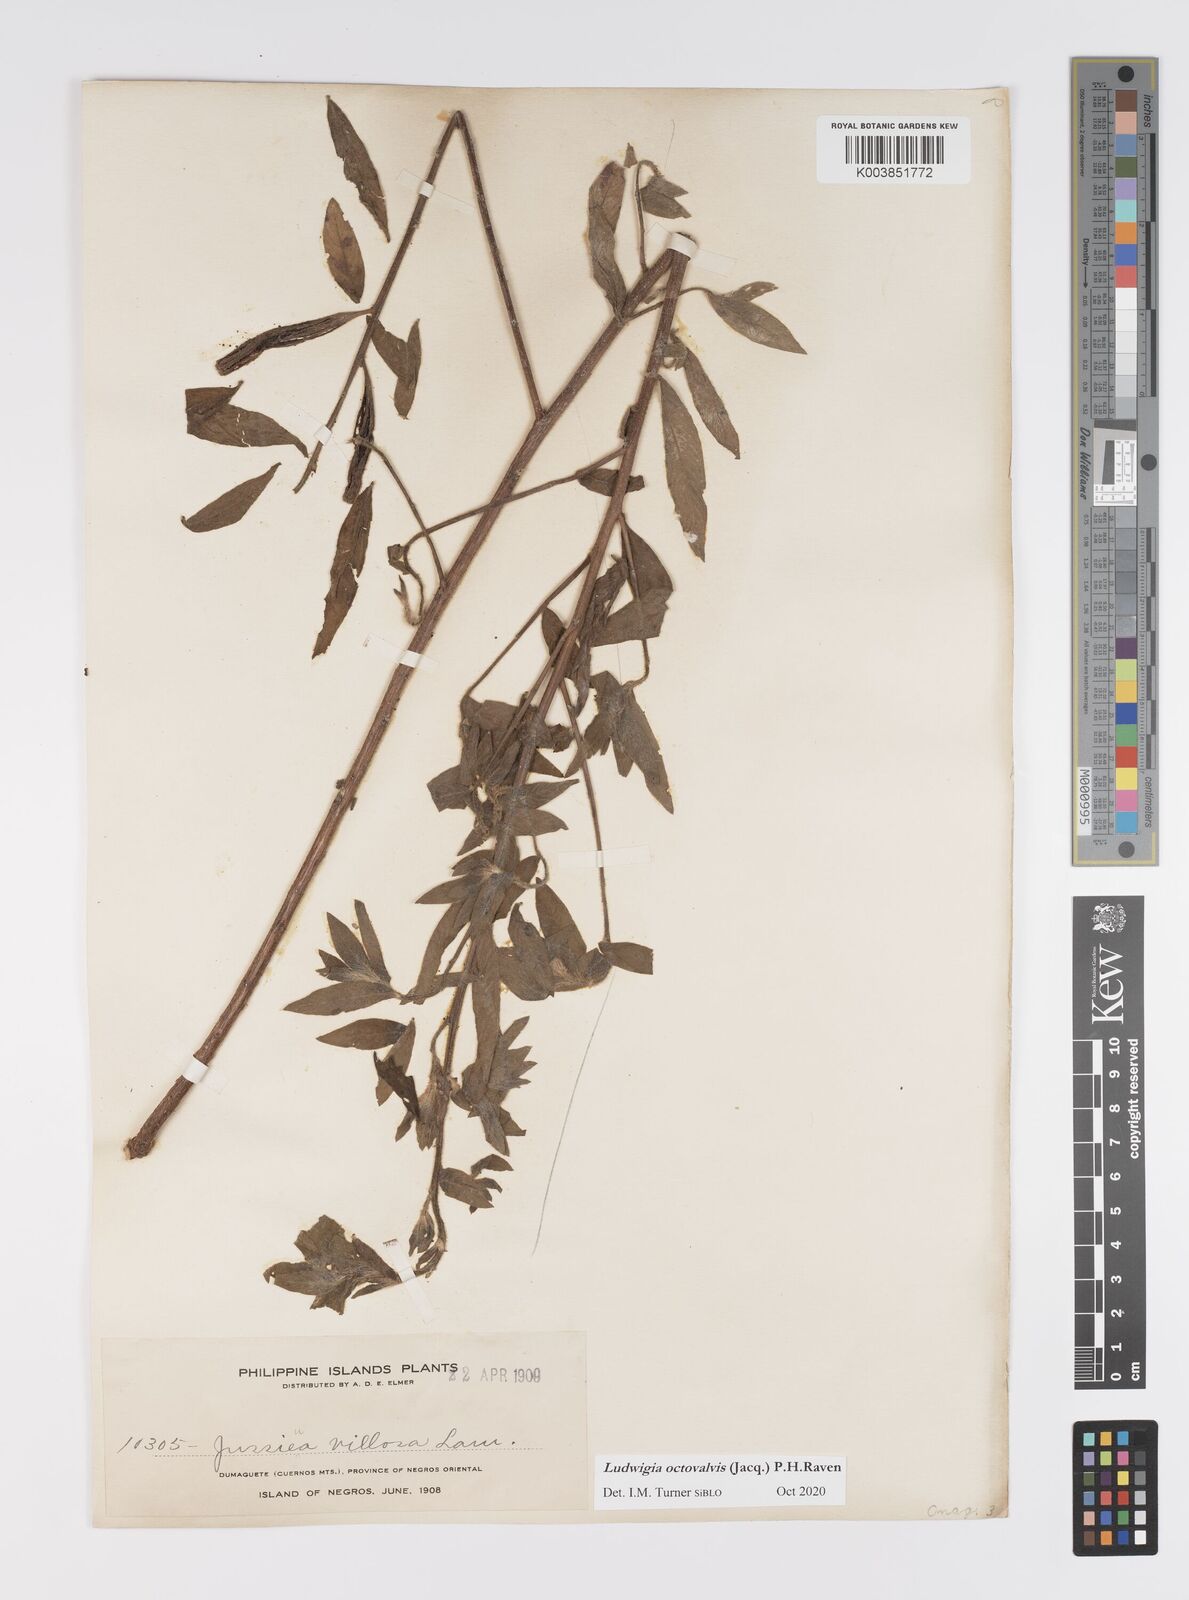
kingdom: Plantae
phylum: Tracheophyta
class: Magnoliopsida
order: Myrtales
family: Onagraceae
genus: Ludwigia
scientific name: Ludwigia octovalvis
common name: Water-primrose
